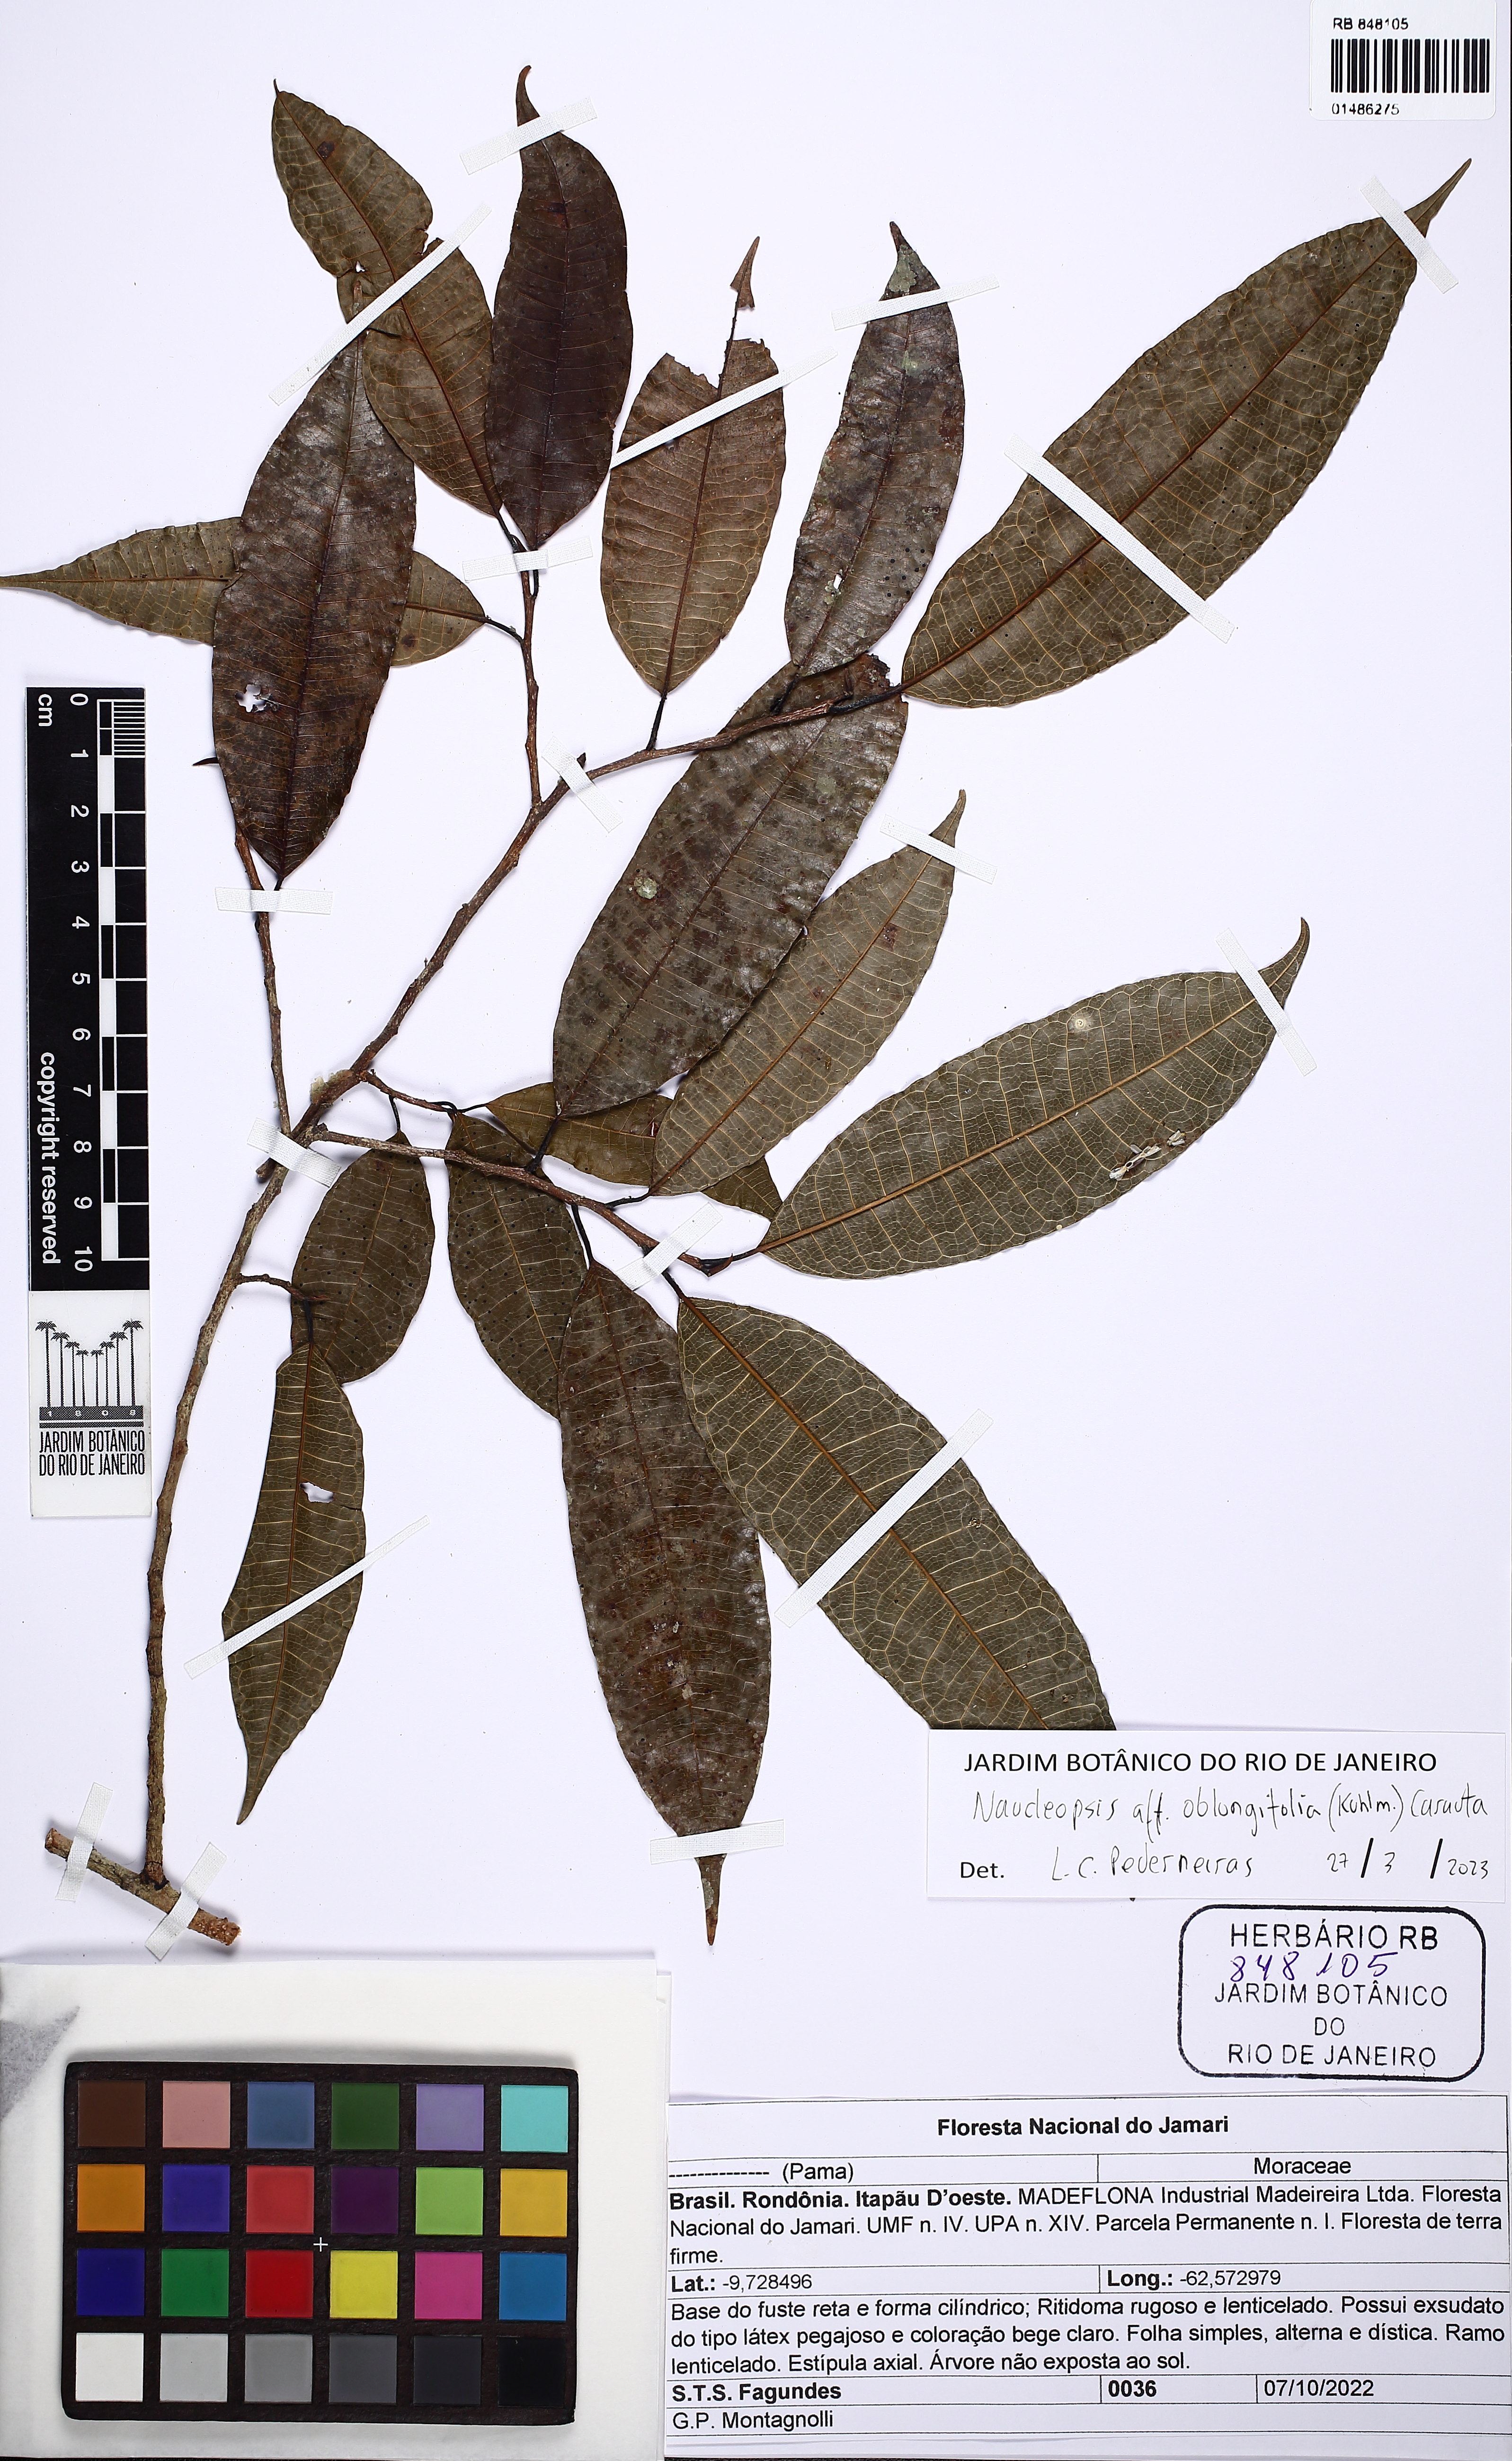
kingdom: Plantae
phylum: Tracheophyta
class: Magnoliopsida
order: Rosales
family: Moraceae
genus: Naucleopsis
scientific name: Naucleopsis oblongifolia
